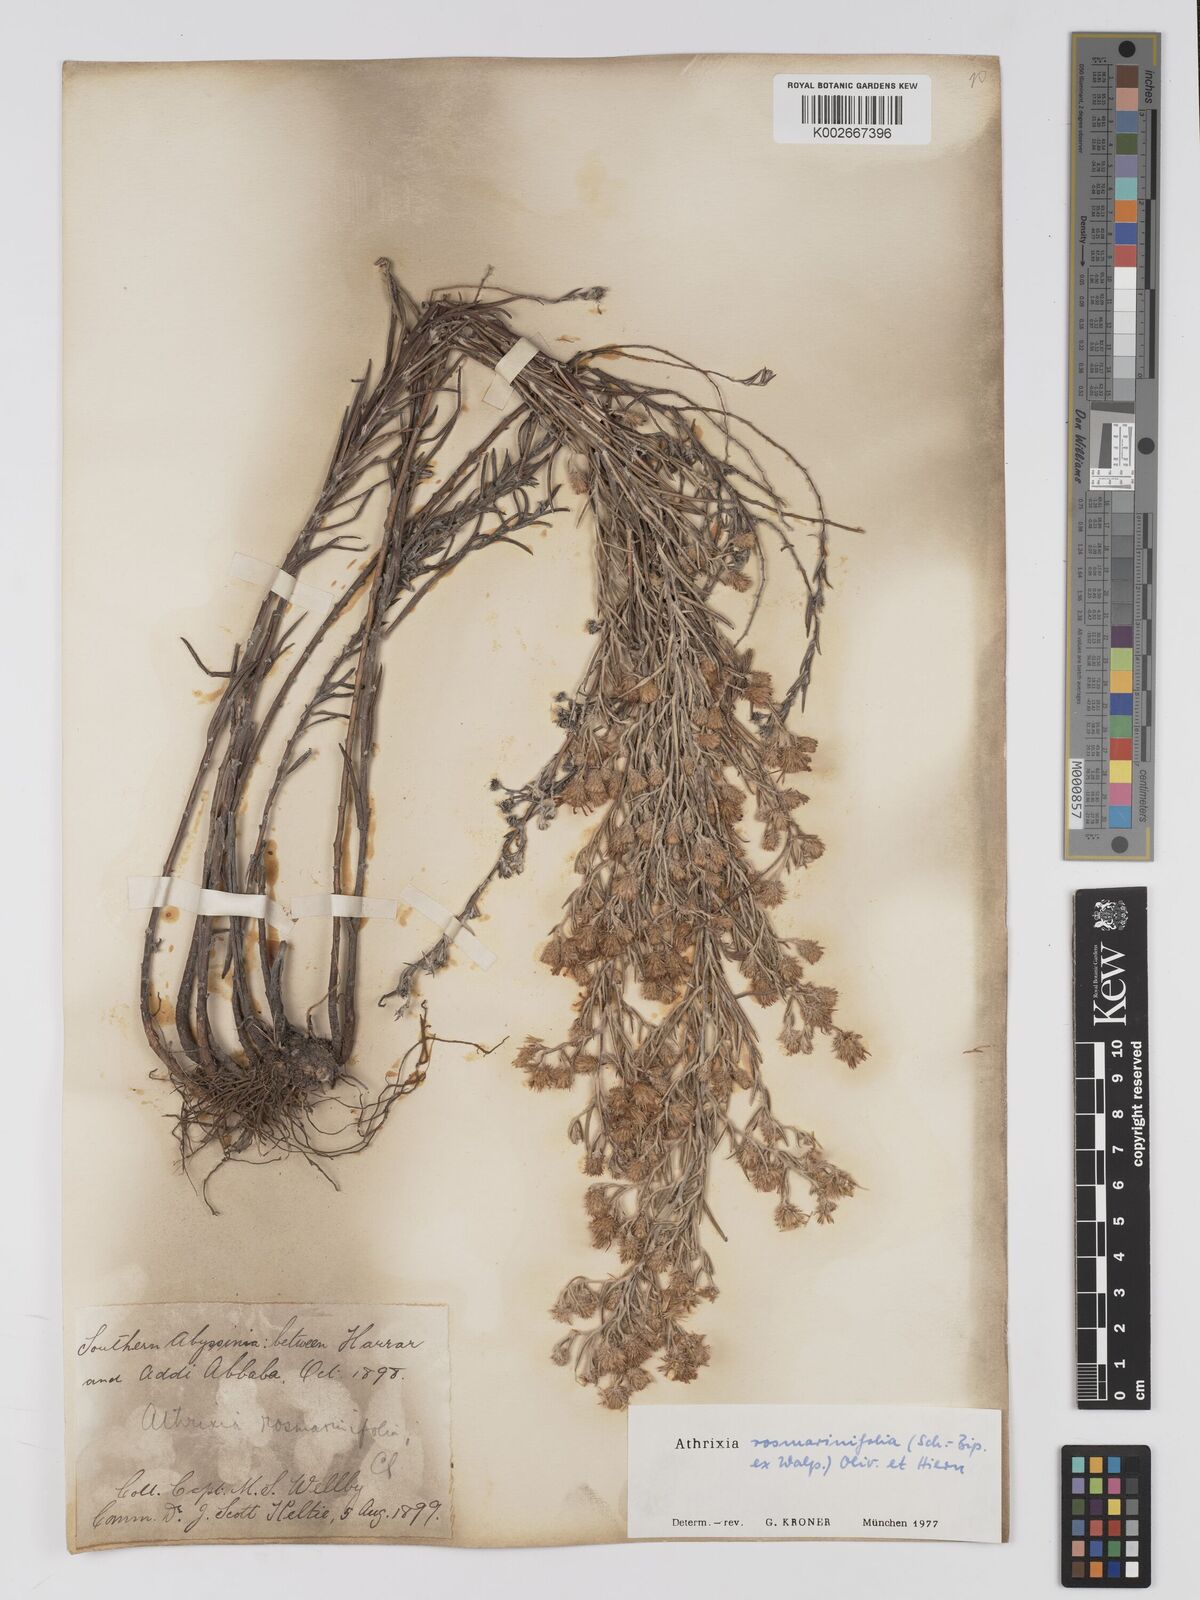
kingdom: Plantae
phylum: Tracheophyta
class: Magnoliopsida
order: Asterales
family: Asteraceae
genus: Athrixia
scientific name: Athrixia rosmarinifolia
